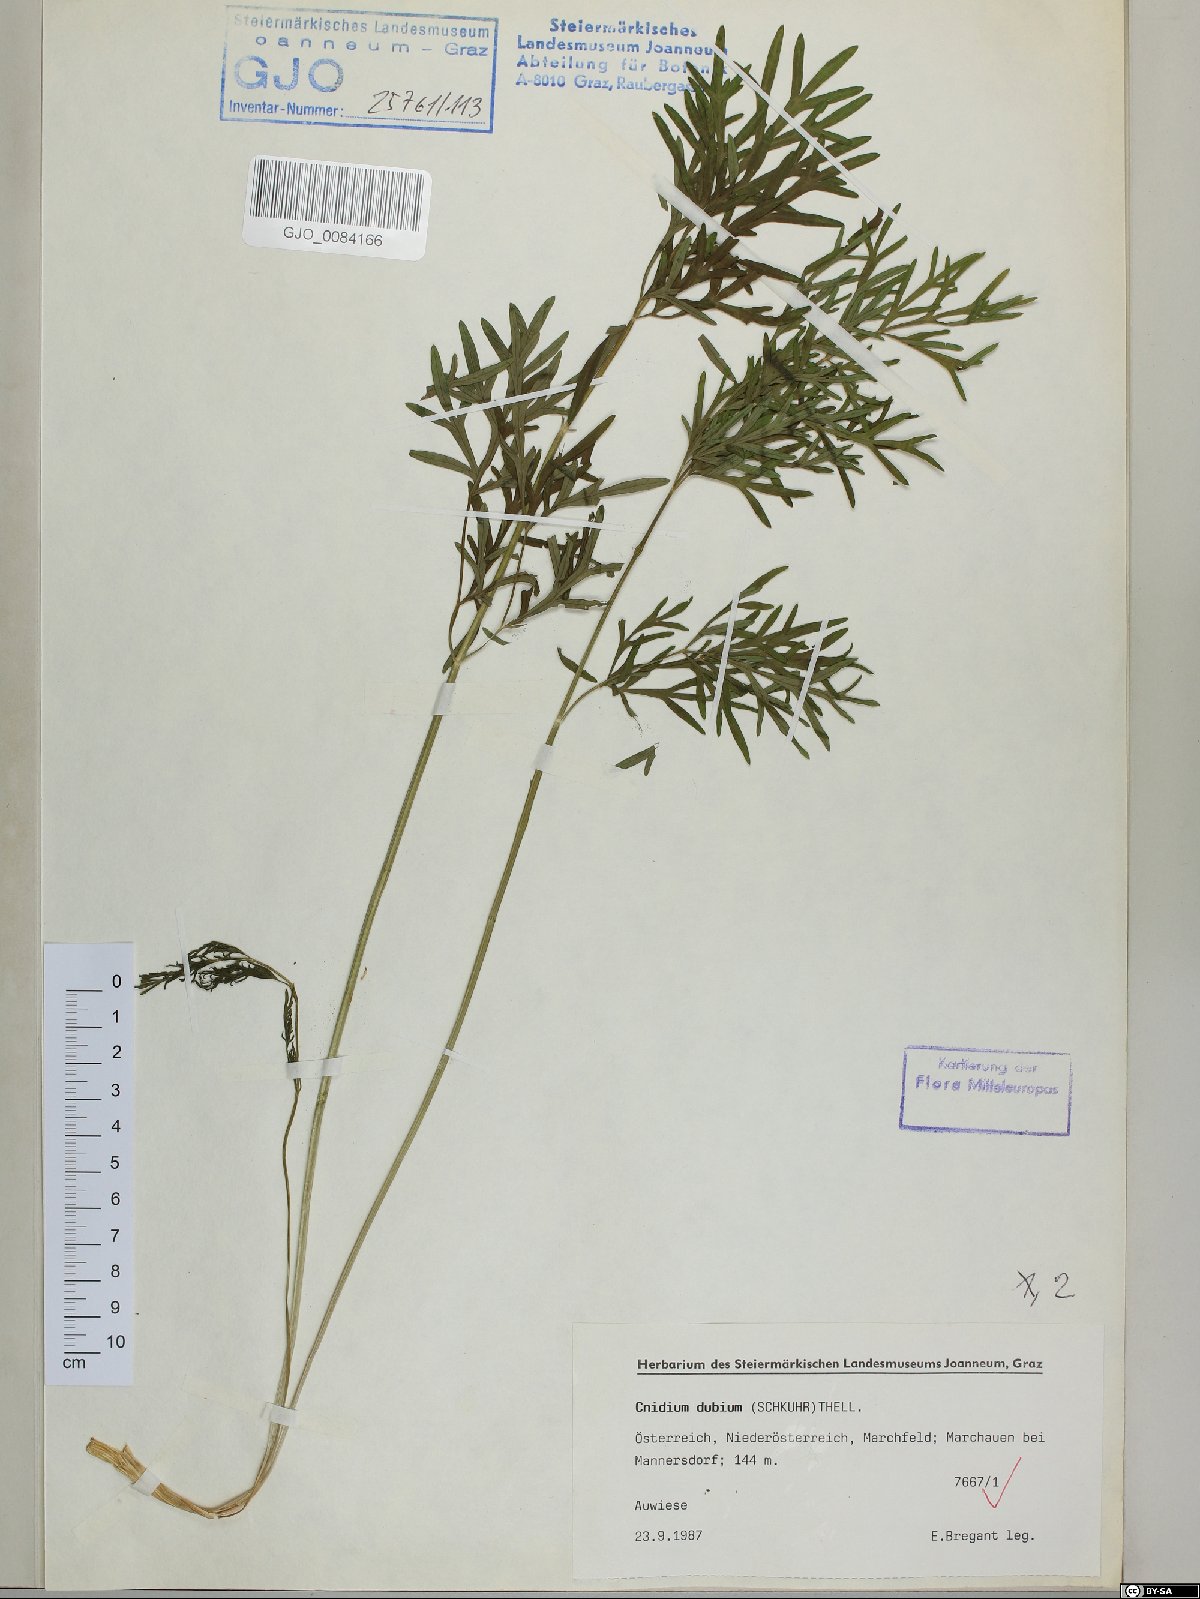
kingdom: Plantae
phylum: Tracheophyta
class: Magnoliopsida
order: Apiales
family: Apiaceae
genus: Kadenia
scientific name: Kadenia dubia
